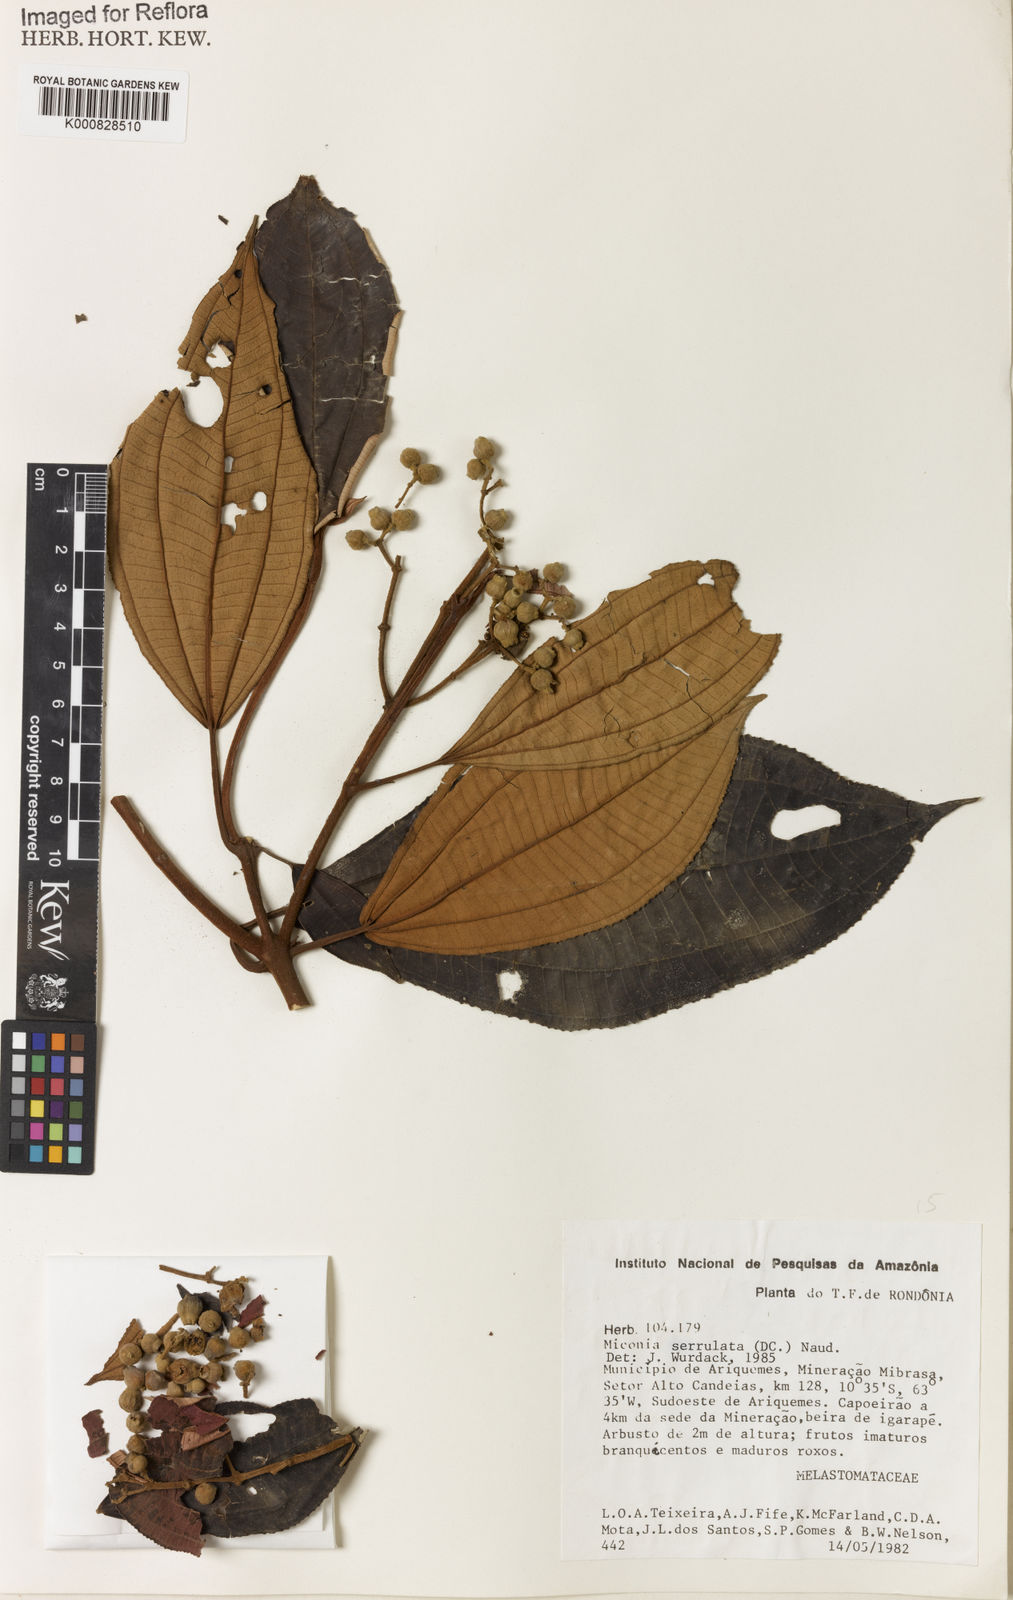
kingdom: Plantae
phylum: Tracheophyta
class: Magnoliopsida
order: Myrtales
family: Melastomataceae
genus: Miconia
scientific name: Miconia serrulata
